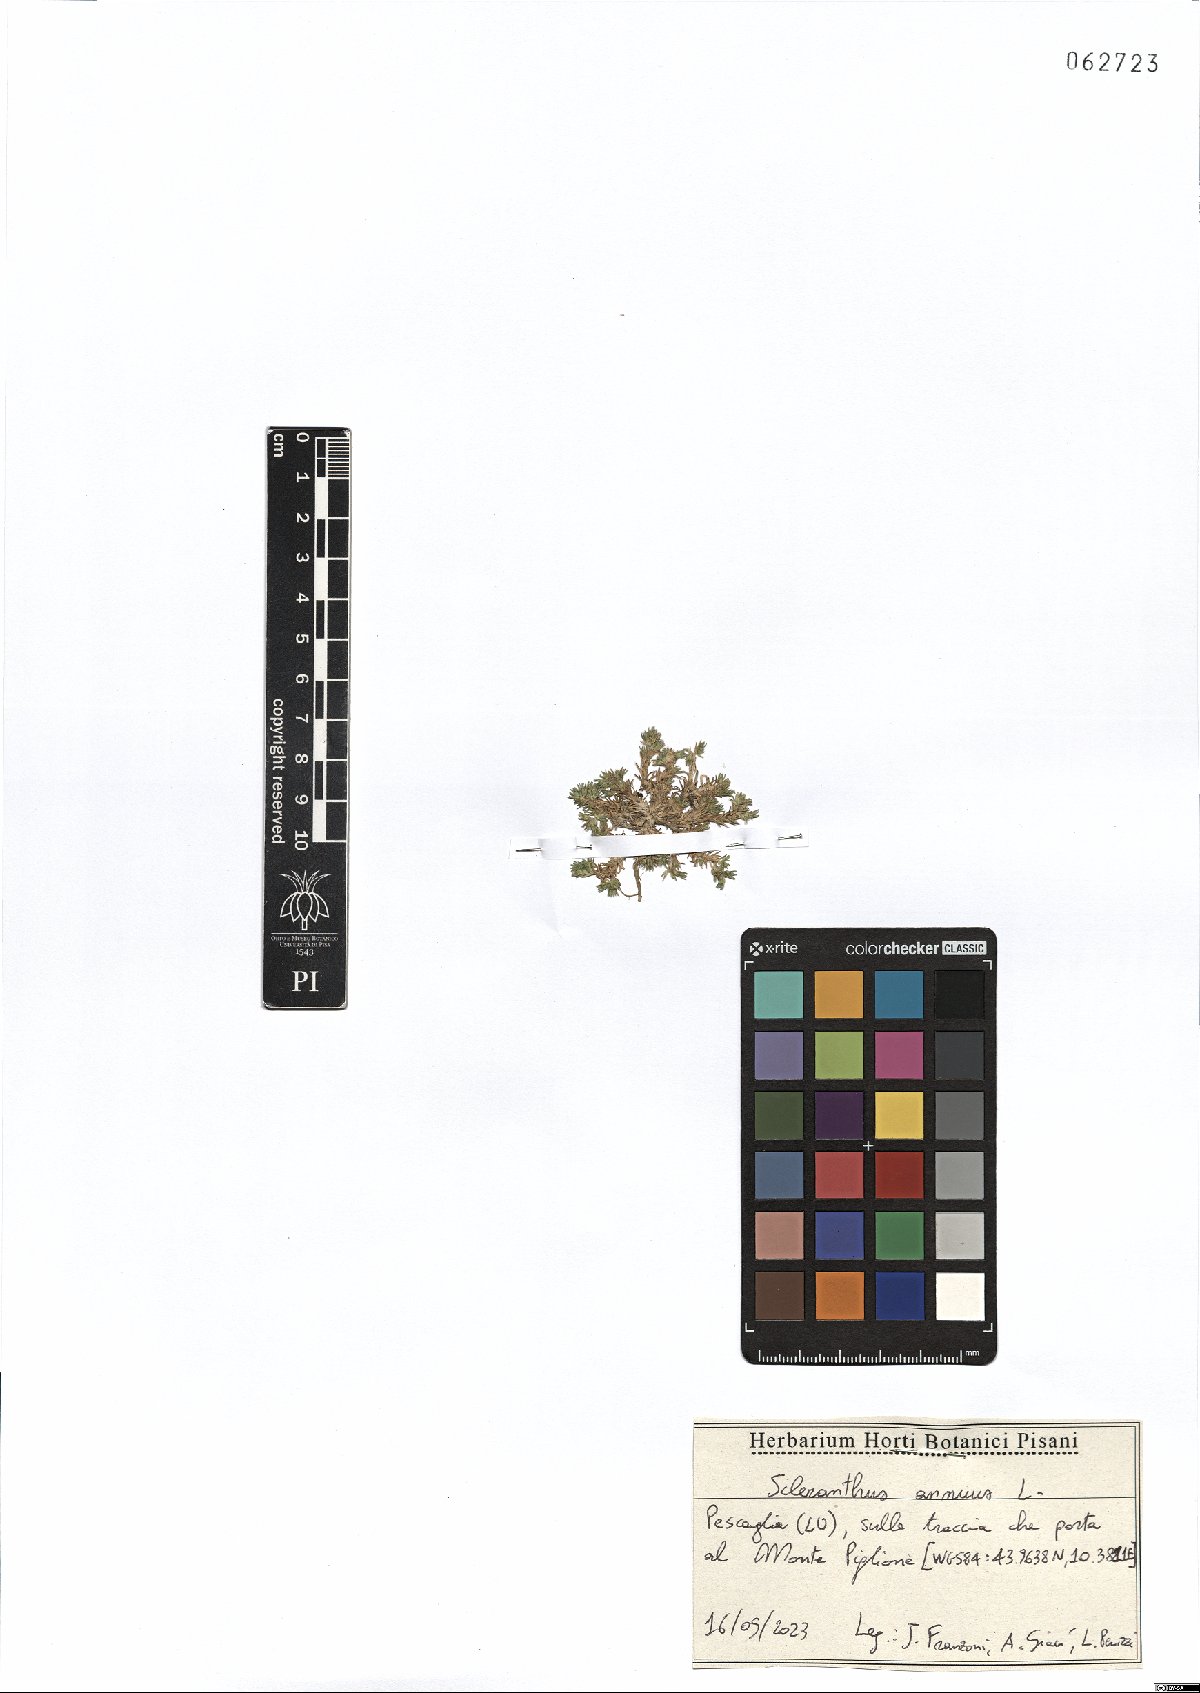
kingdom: Plantae
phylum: Tracheophyta
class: Magnoliopsida
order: Caryophyllales
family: Caryophyllaceae
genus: Scleranthus
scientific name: Scleranthus annuus
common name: Annual knawel
